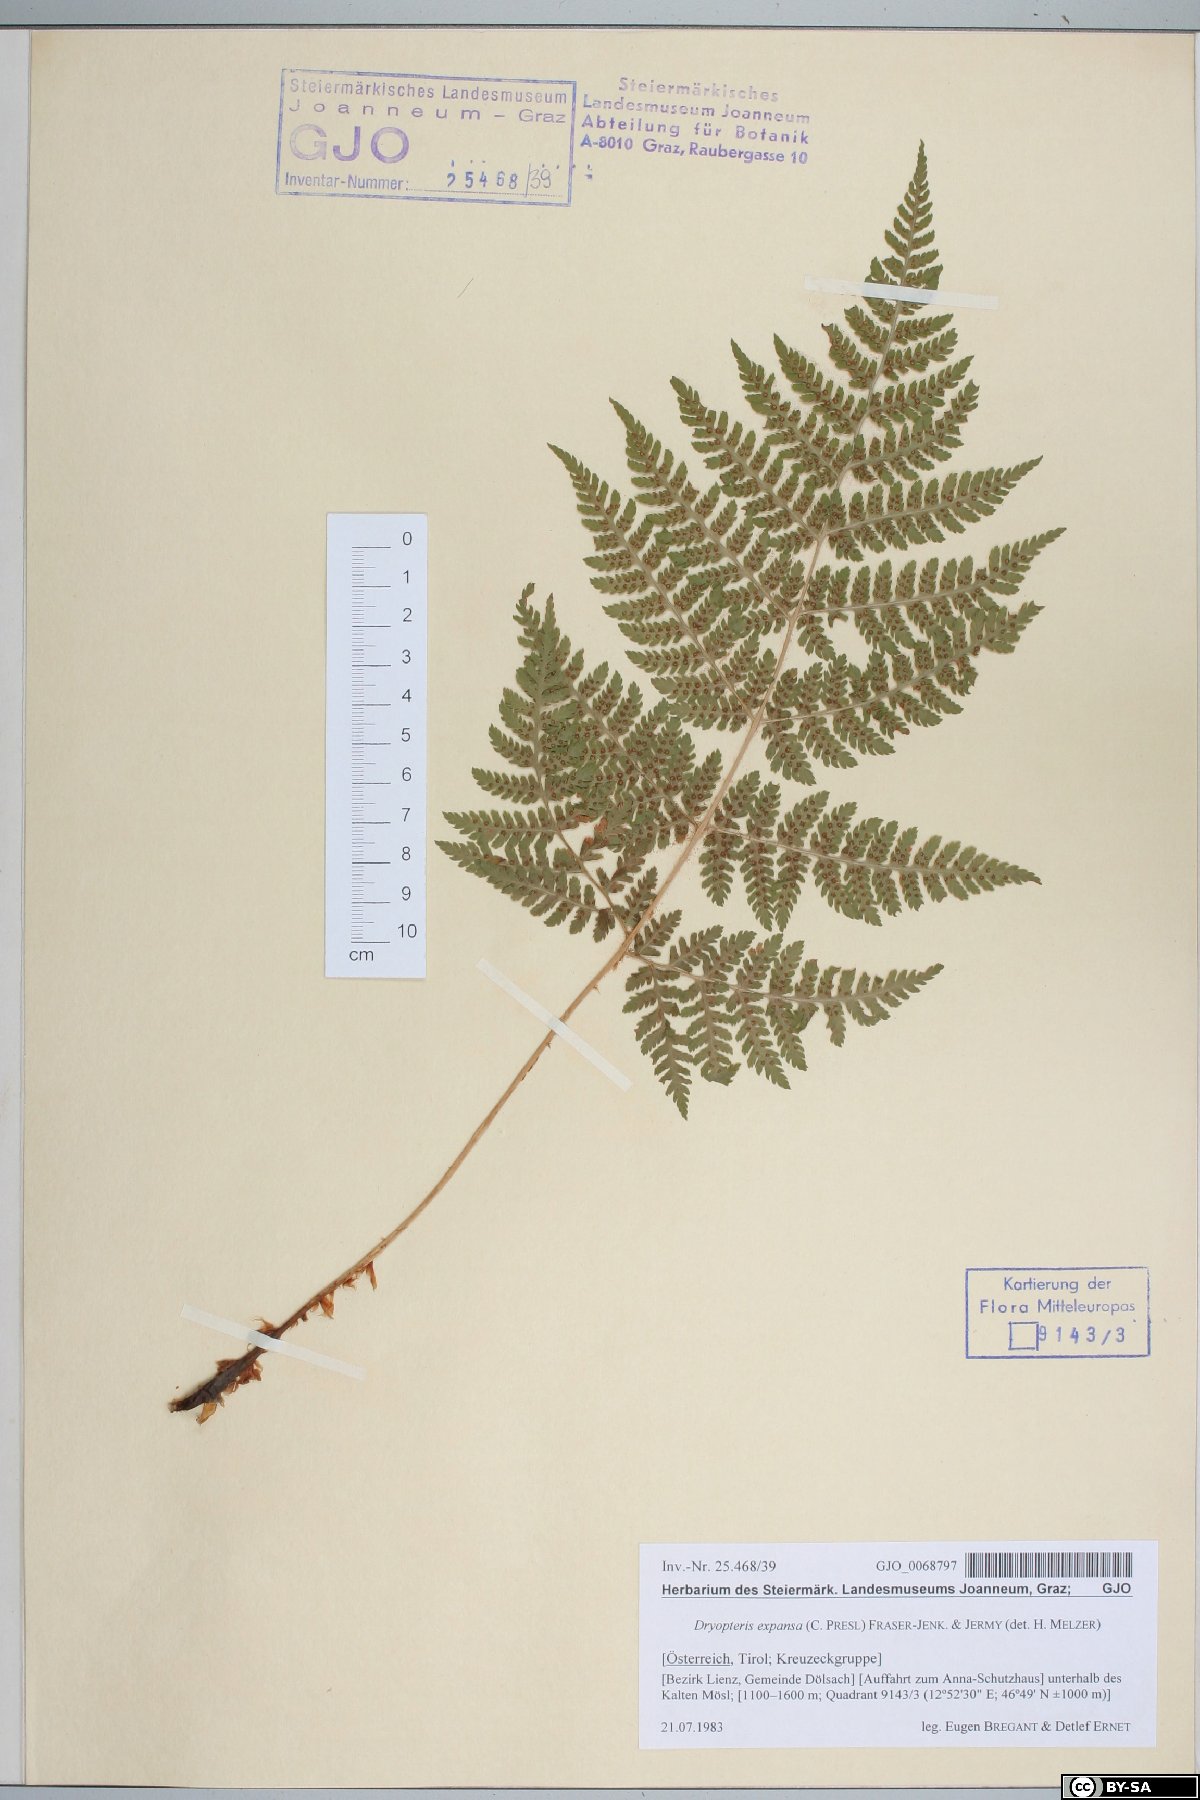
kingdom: Plantae
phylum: Tracheophyta
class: Polypodiopsida
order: Polypodiales
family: Dryopteridaceae
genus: Dryopteris
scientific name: Dryopteris expansa
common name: Northern buckler fern
